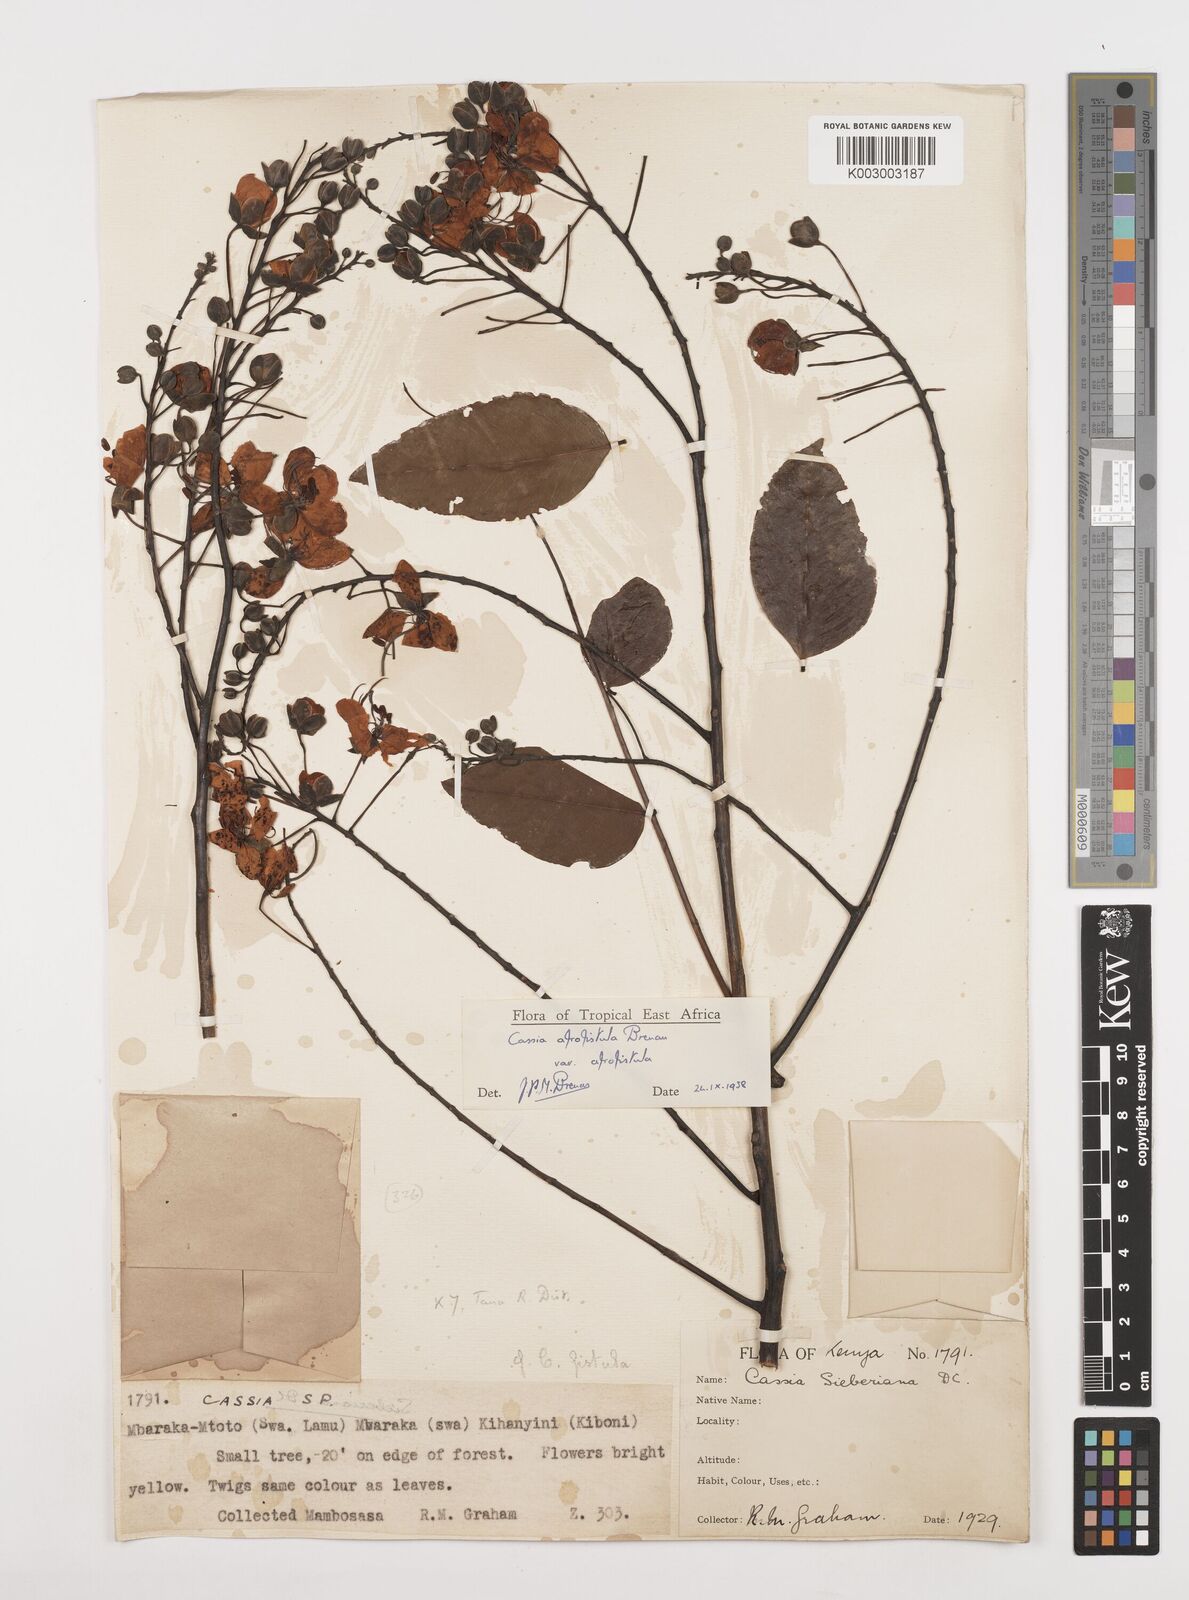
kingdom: Plantae
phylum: Tracheophyta
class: Magnoliopsida
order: Fabales
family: Fabaceae
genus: Cassia
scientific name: Cassia afrofistula
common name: Kenyan shower
